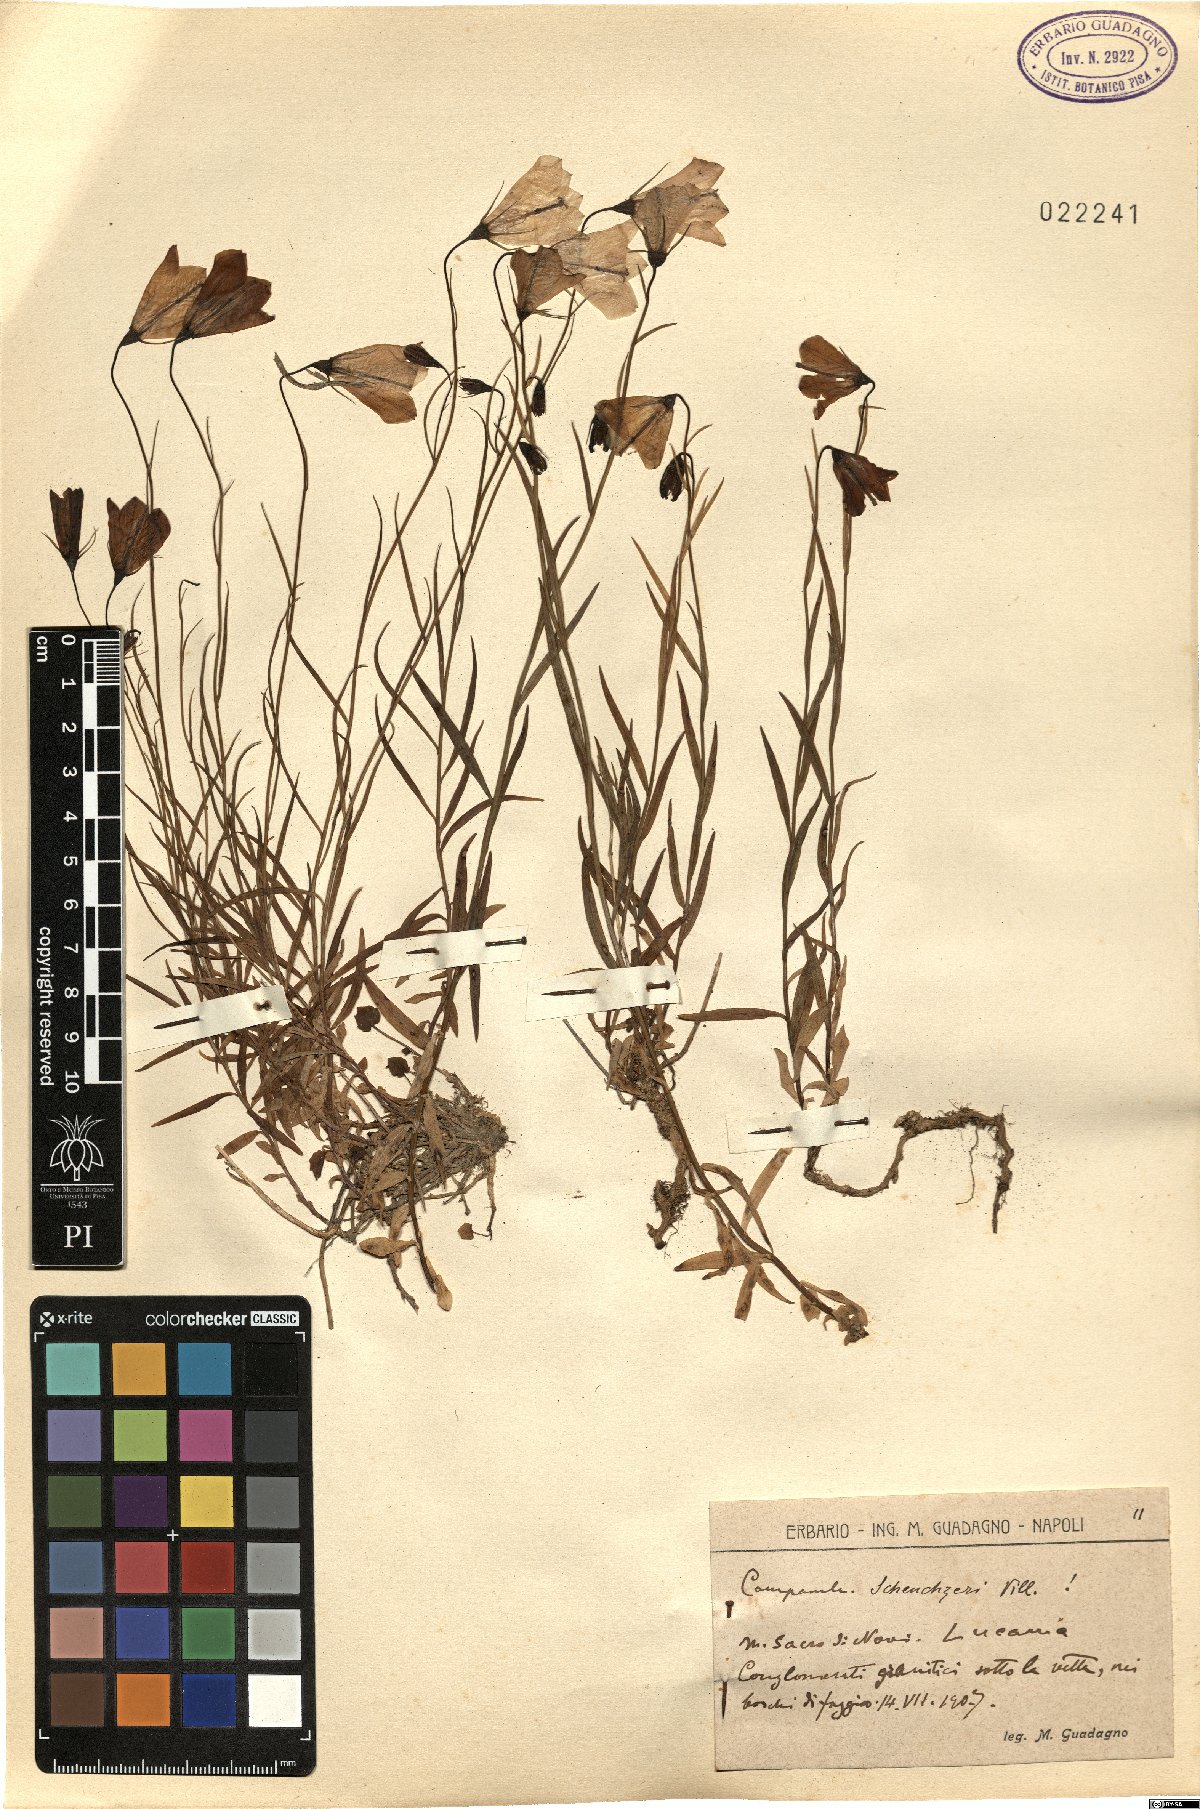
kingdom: Plantae
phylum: Tracheophyta
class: Magnoliopsida
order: Asterales
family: Campanulaceae
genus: Campanula
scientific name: Campanula scheuchzeri
